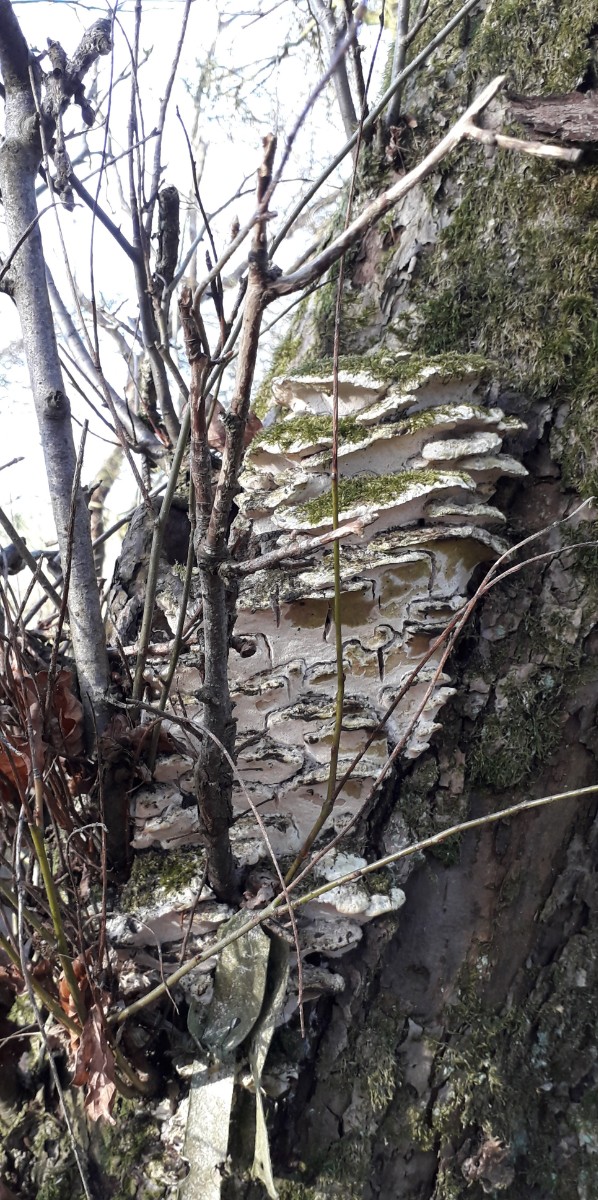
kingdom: Fungi
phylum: Basidiomycota
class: Agaricomycetes
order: Hymenochaetales
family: Oxyporaceae
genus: Oxyporus
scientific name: Oxyporus populinus
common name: sammenvokset trylleporesvamp
